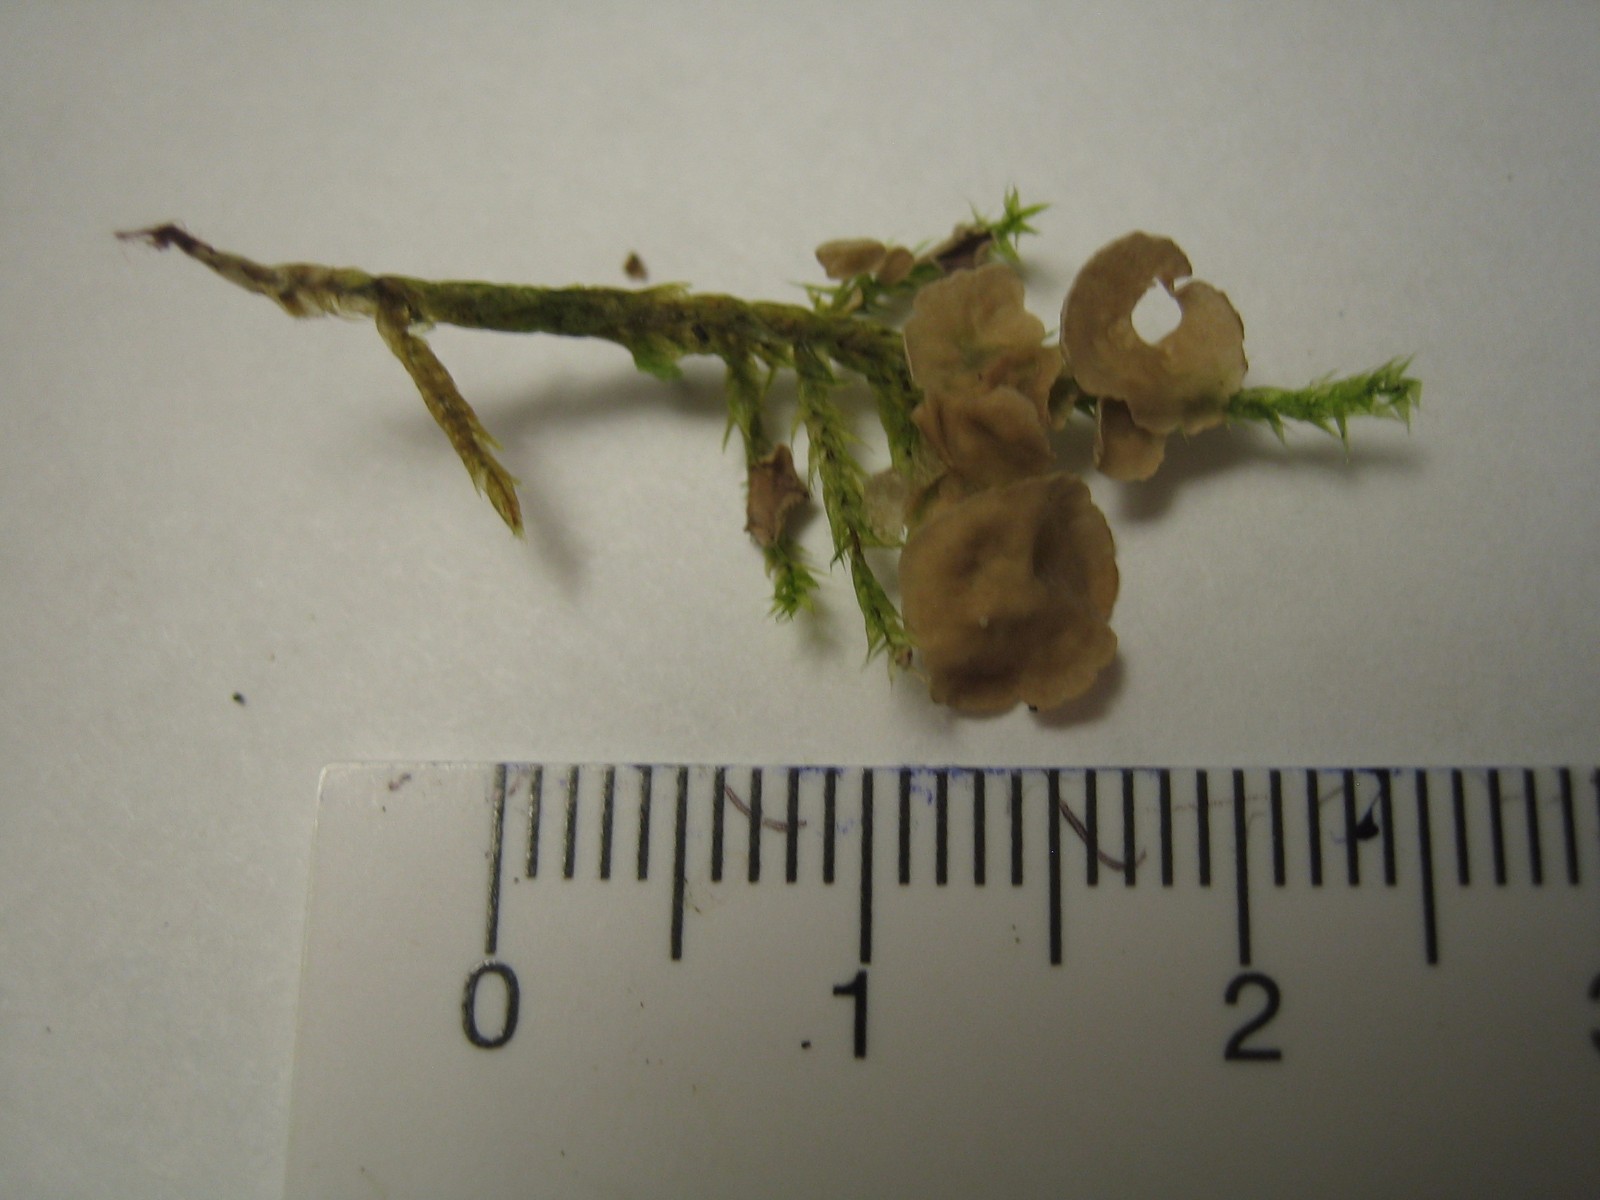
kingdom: Fungi
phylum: Basidiomycota
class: Agaricomycetes
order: Agaricales
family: Hygrophoraceae
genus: Arrhenia
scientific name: Arrhenia retiruga
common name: lille fontænehat
